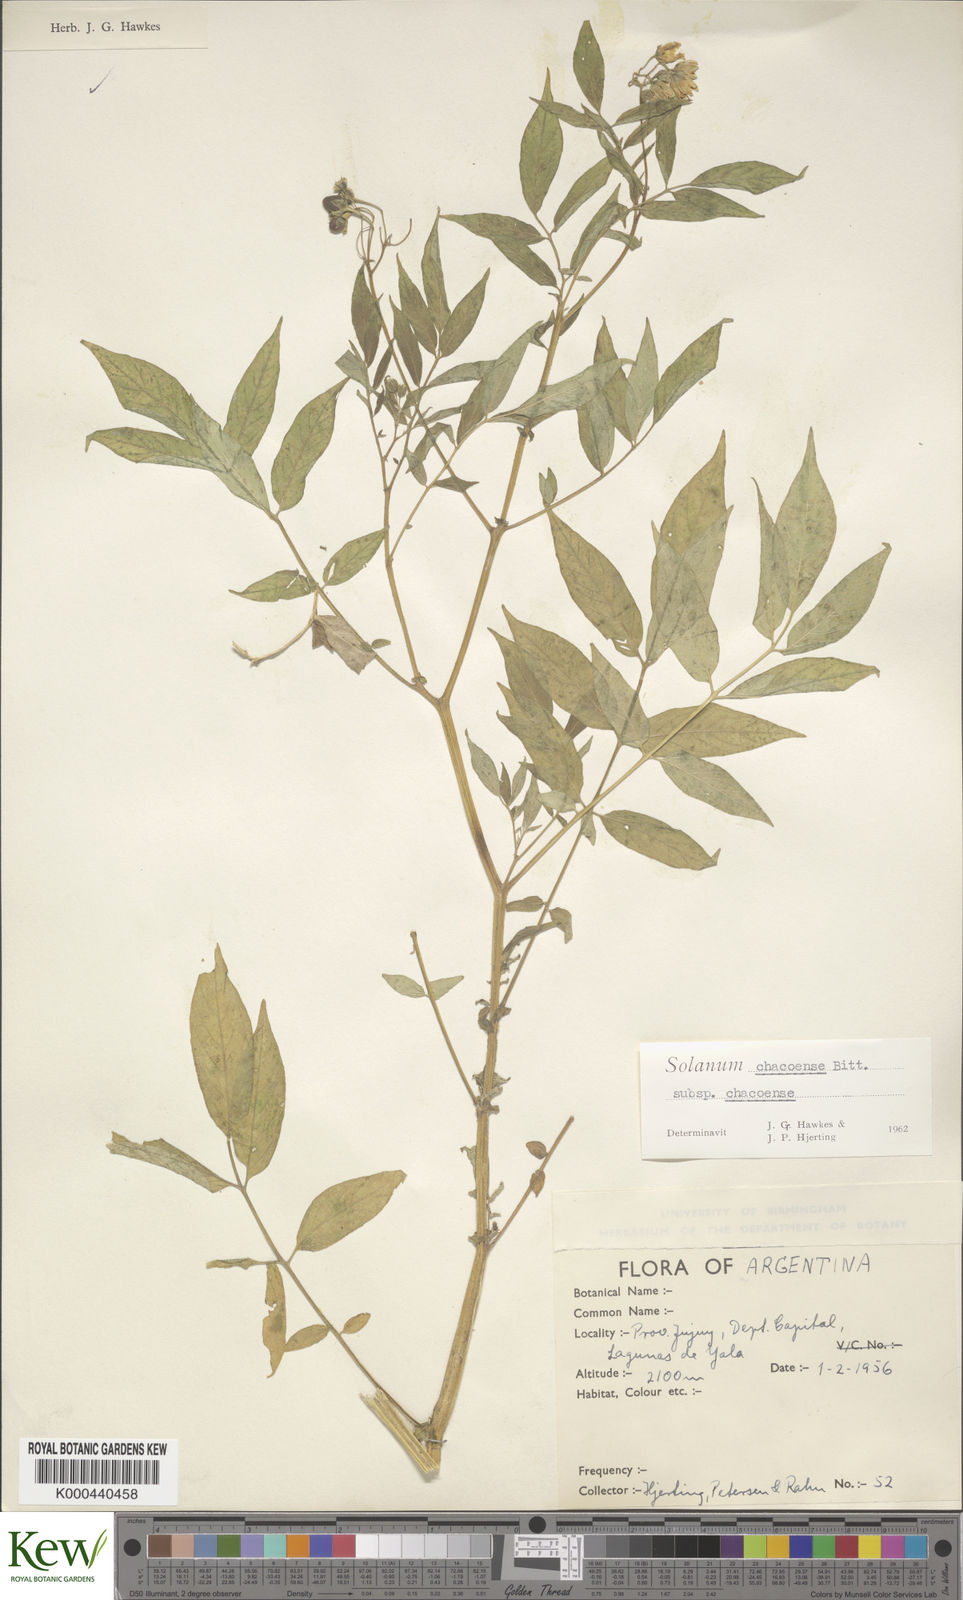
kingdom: Plantae
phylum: Tracheophyta
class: Magnoliopsida
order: Solanales
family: Solanaceae
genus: Solanum
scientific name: Solanum chacoense
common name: Chaco potato
